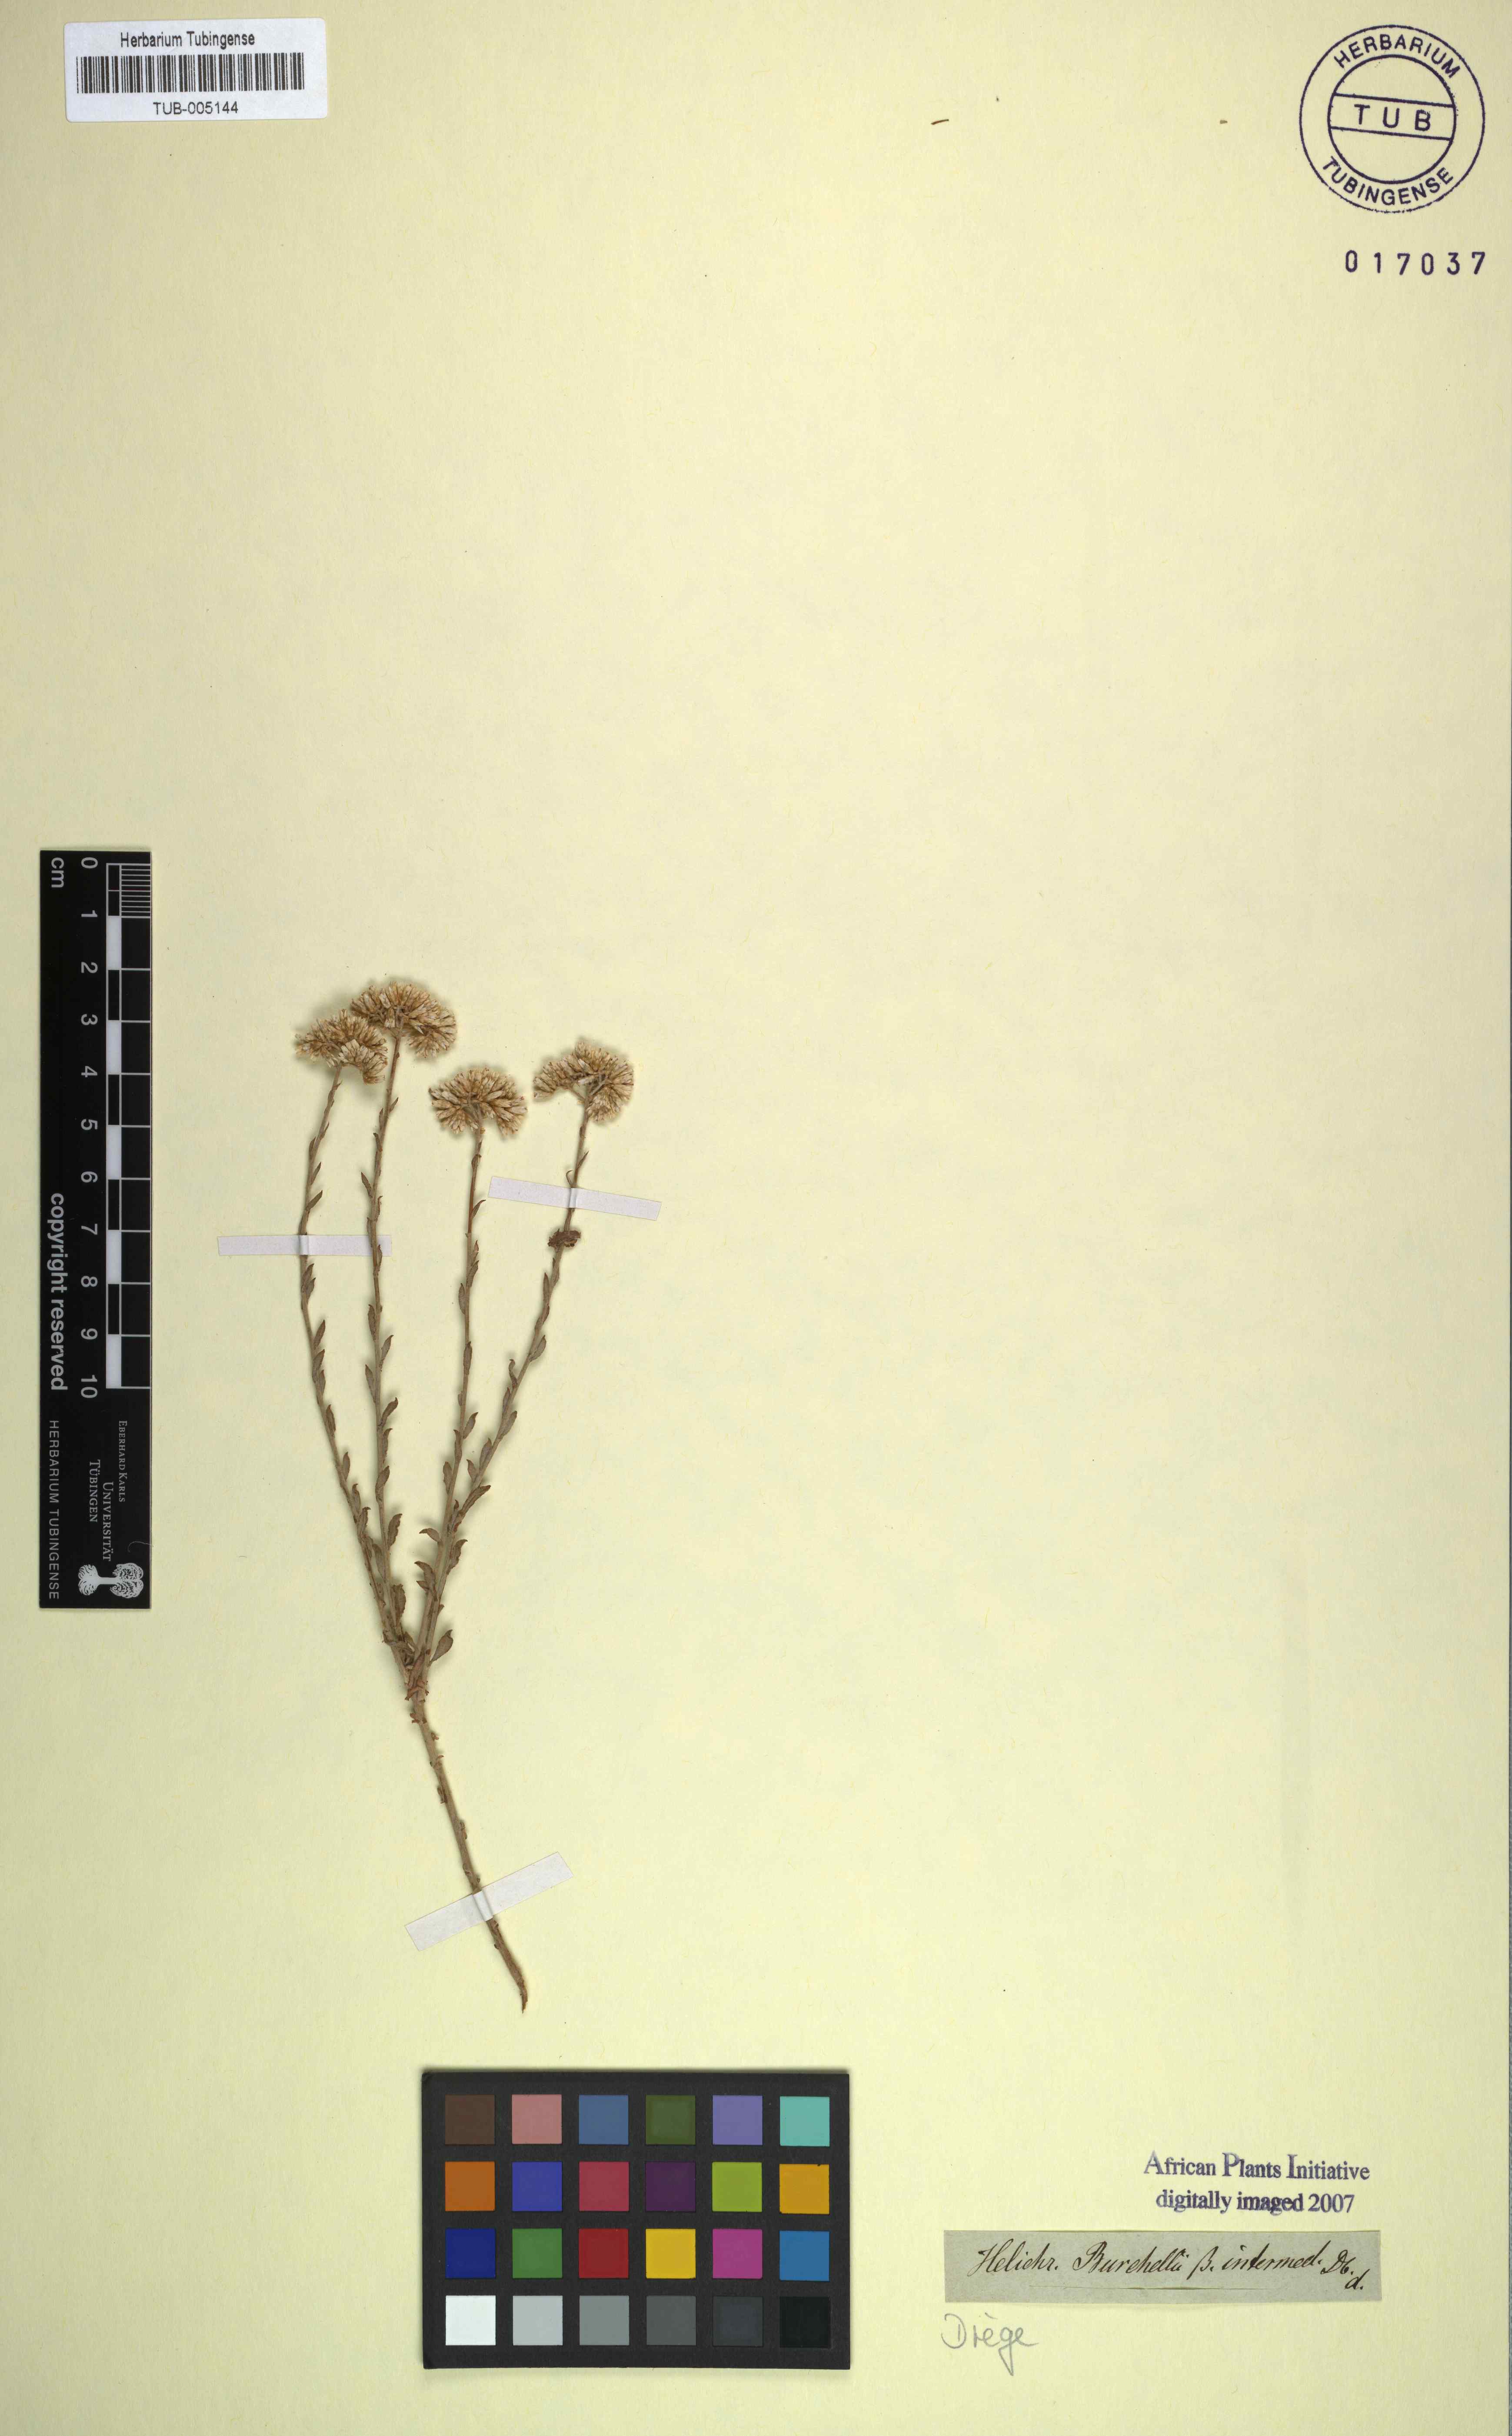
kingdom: Plantae
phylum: Tracheophyta
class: Magnoliopsida
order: Asterales
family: Asteraceae
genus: Helichrysum
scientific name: Helichrysum zeyheri
